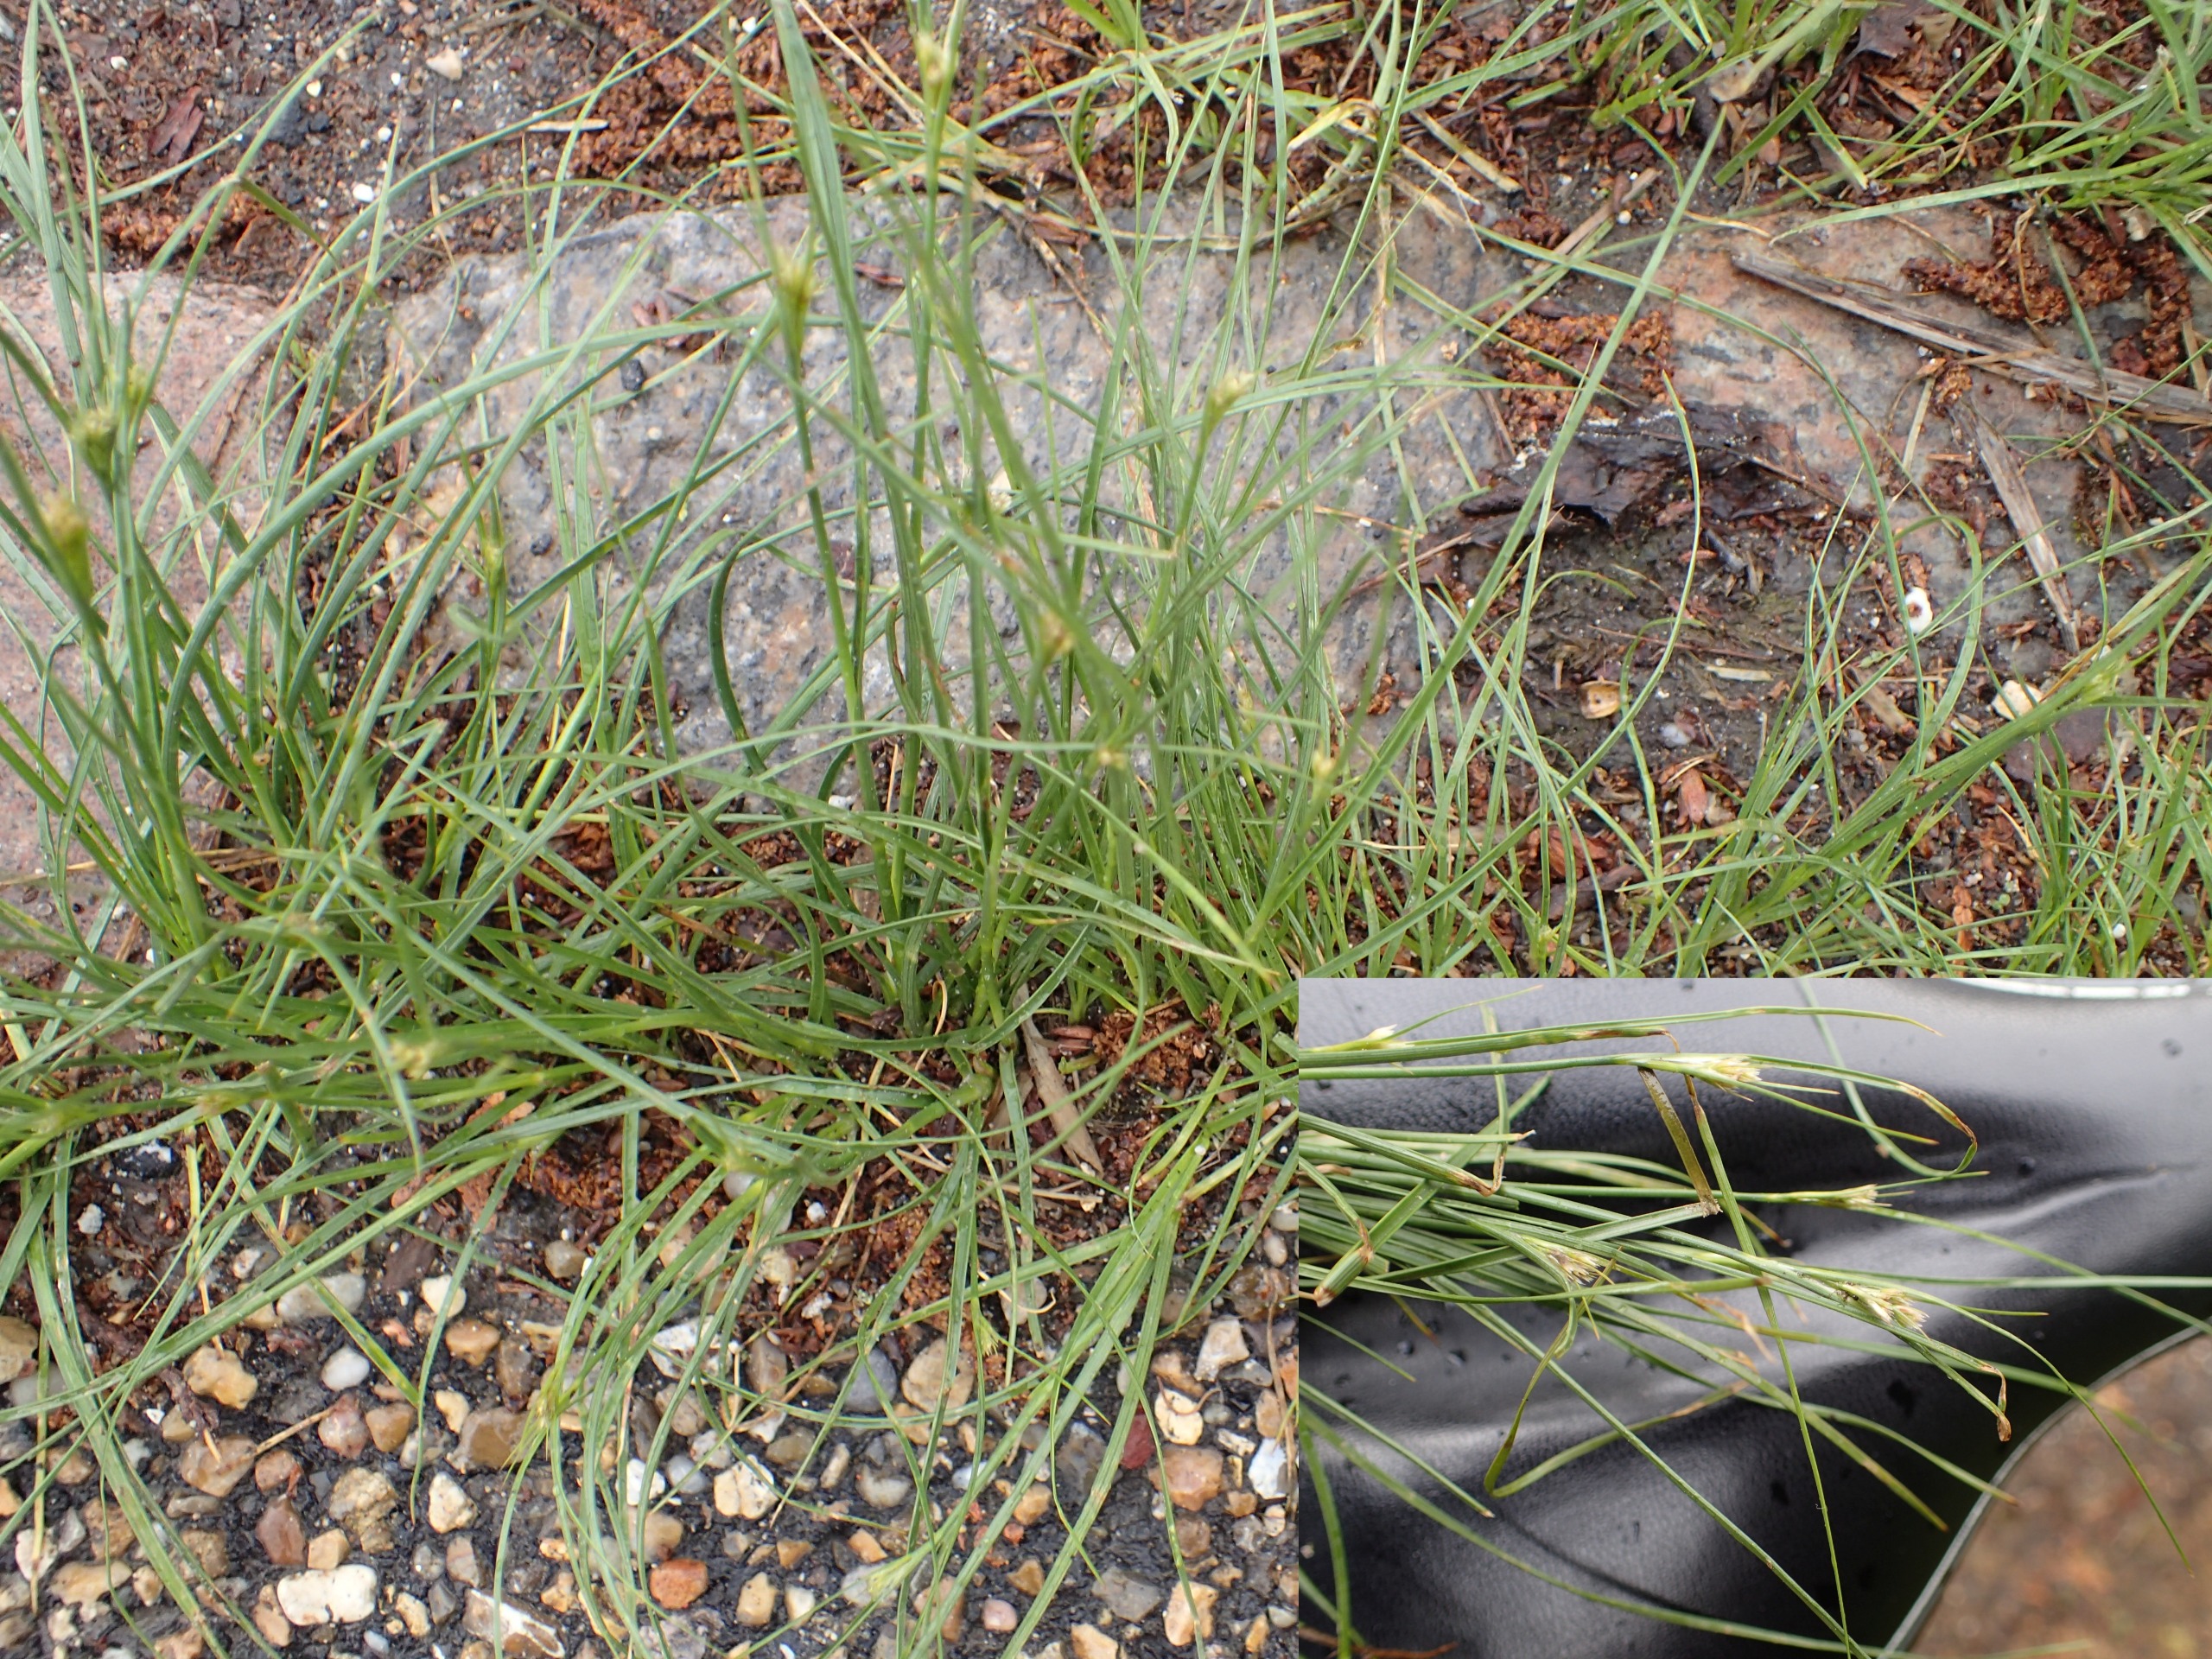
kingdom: Plantae
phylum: Tracheophyta
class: Liliopsida
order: Poales
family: Juncaceae
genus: Juncus
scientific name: Juncus tenuis
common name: Tue-siv
